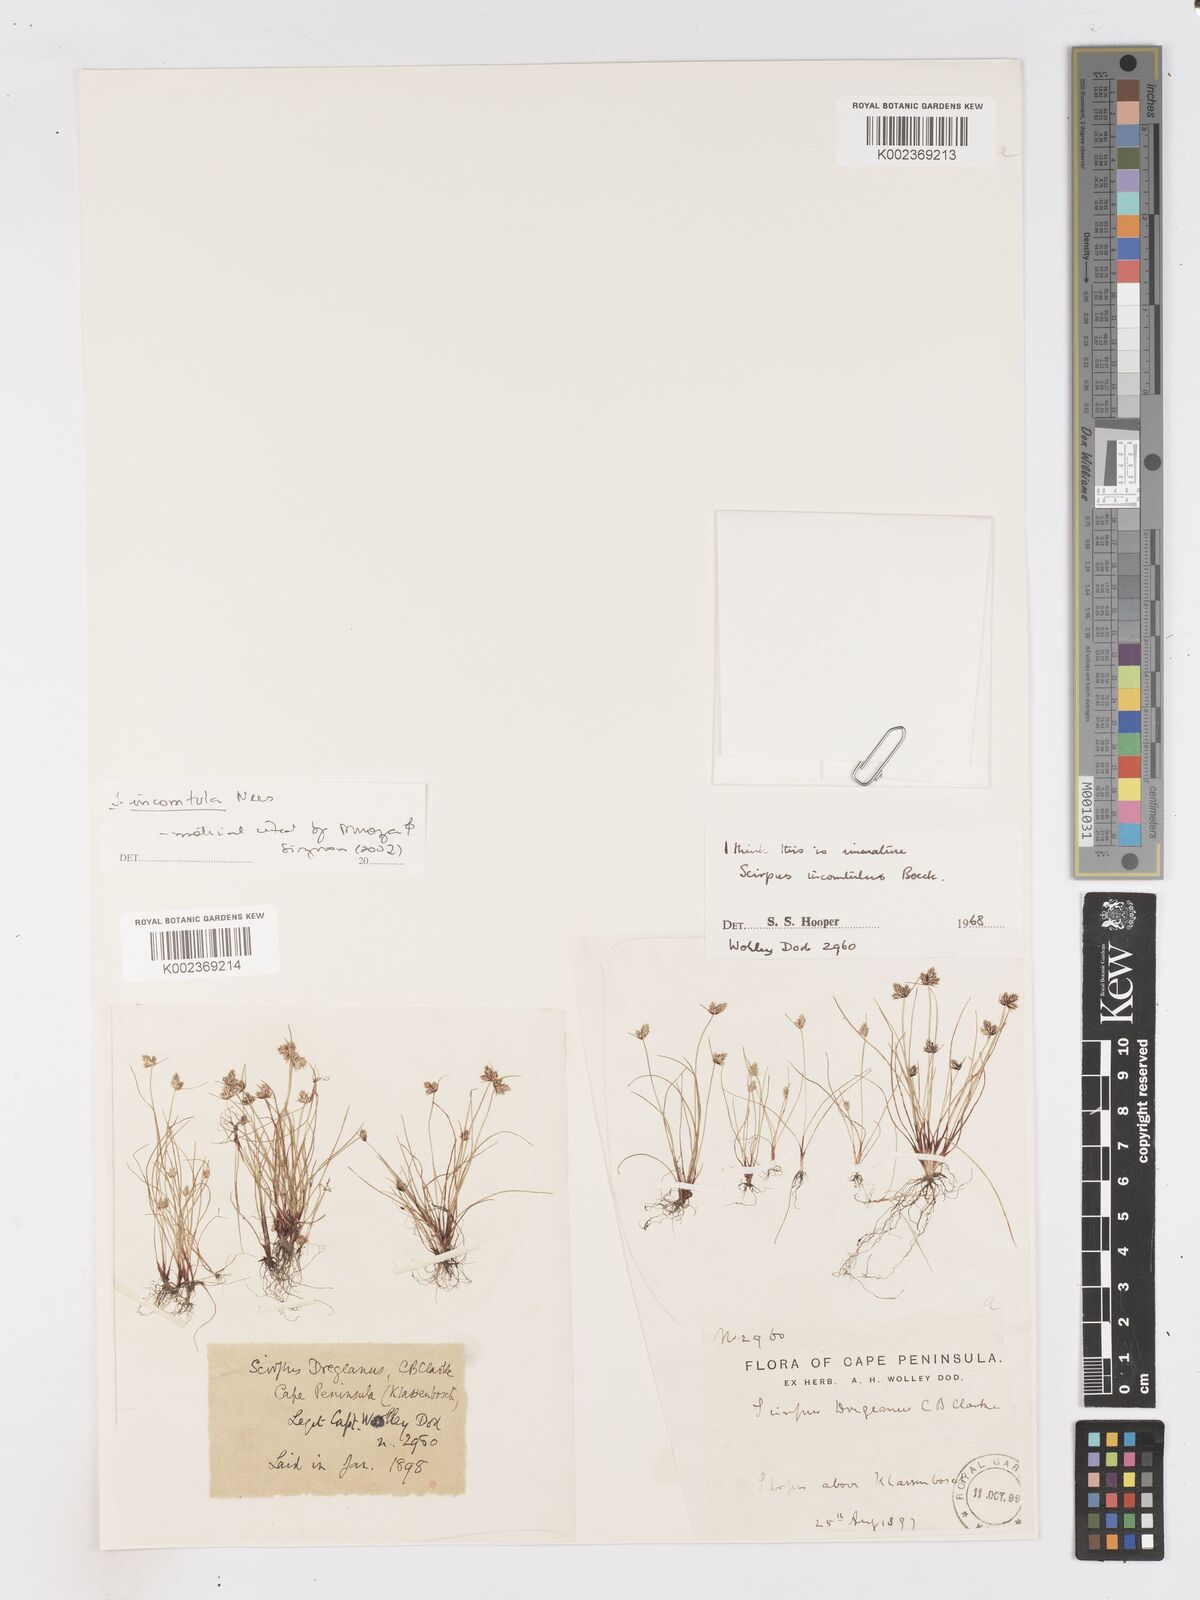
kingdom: Plantae
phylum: Tracheophyta
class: Liliopsida
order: Poales
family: Cyperaceae
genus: Ficinia
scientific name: Ficinia incomtula
